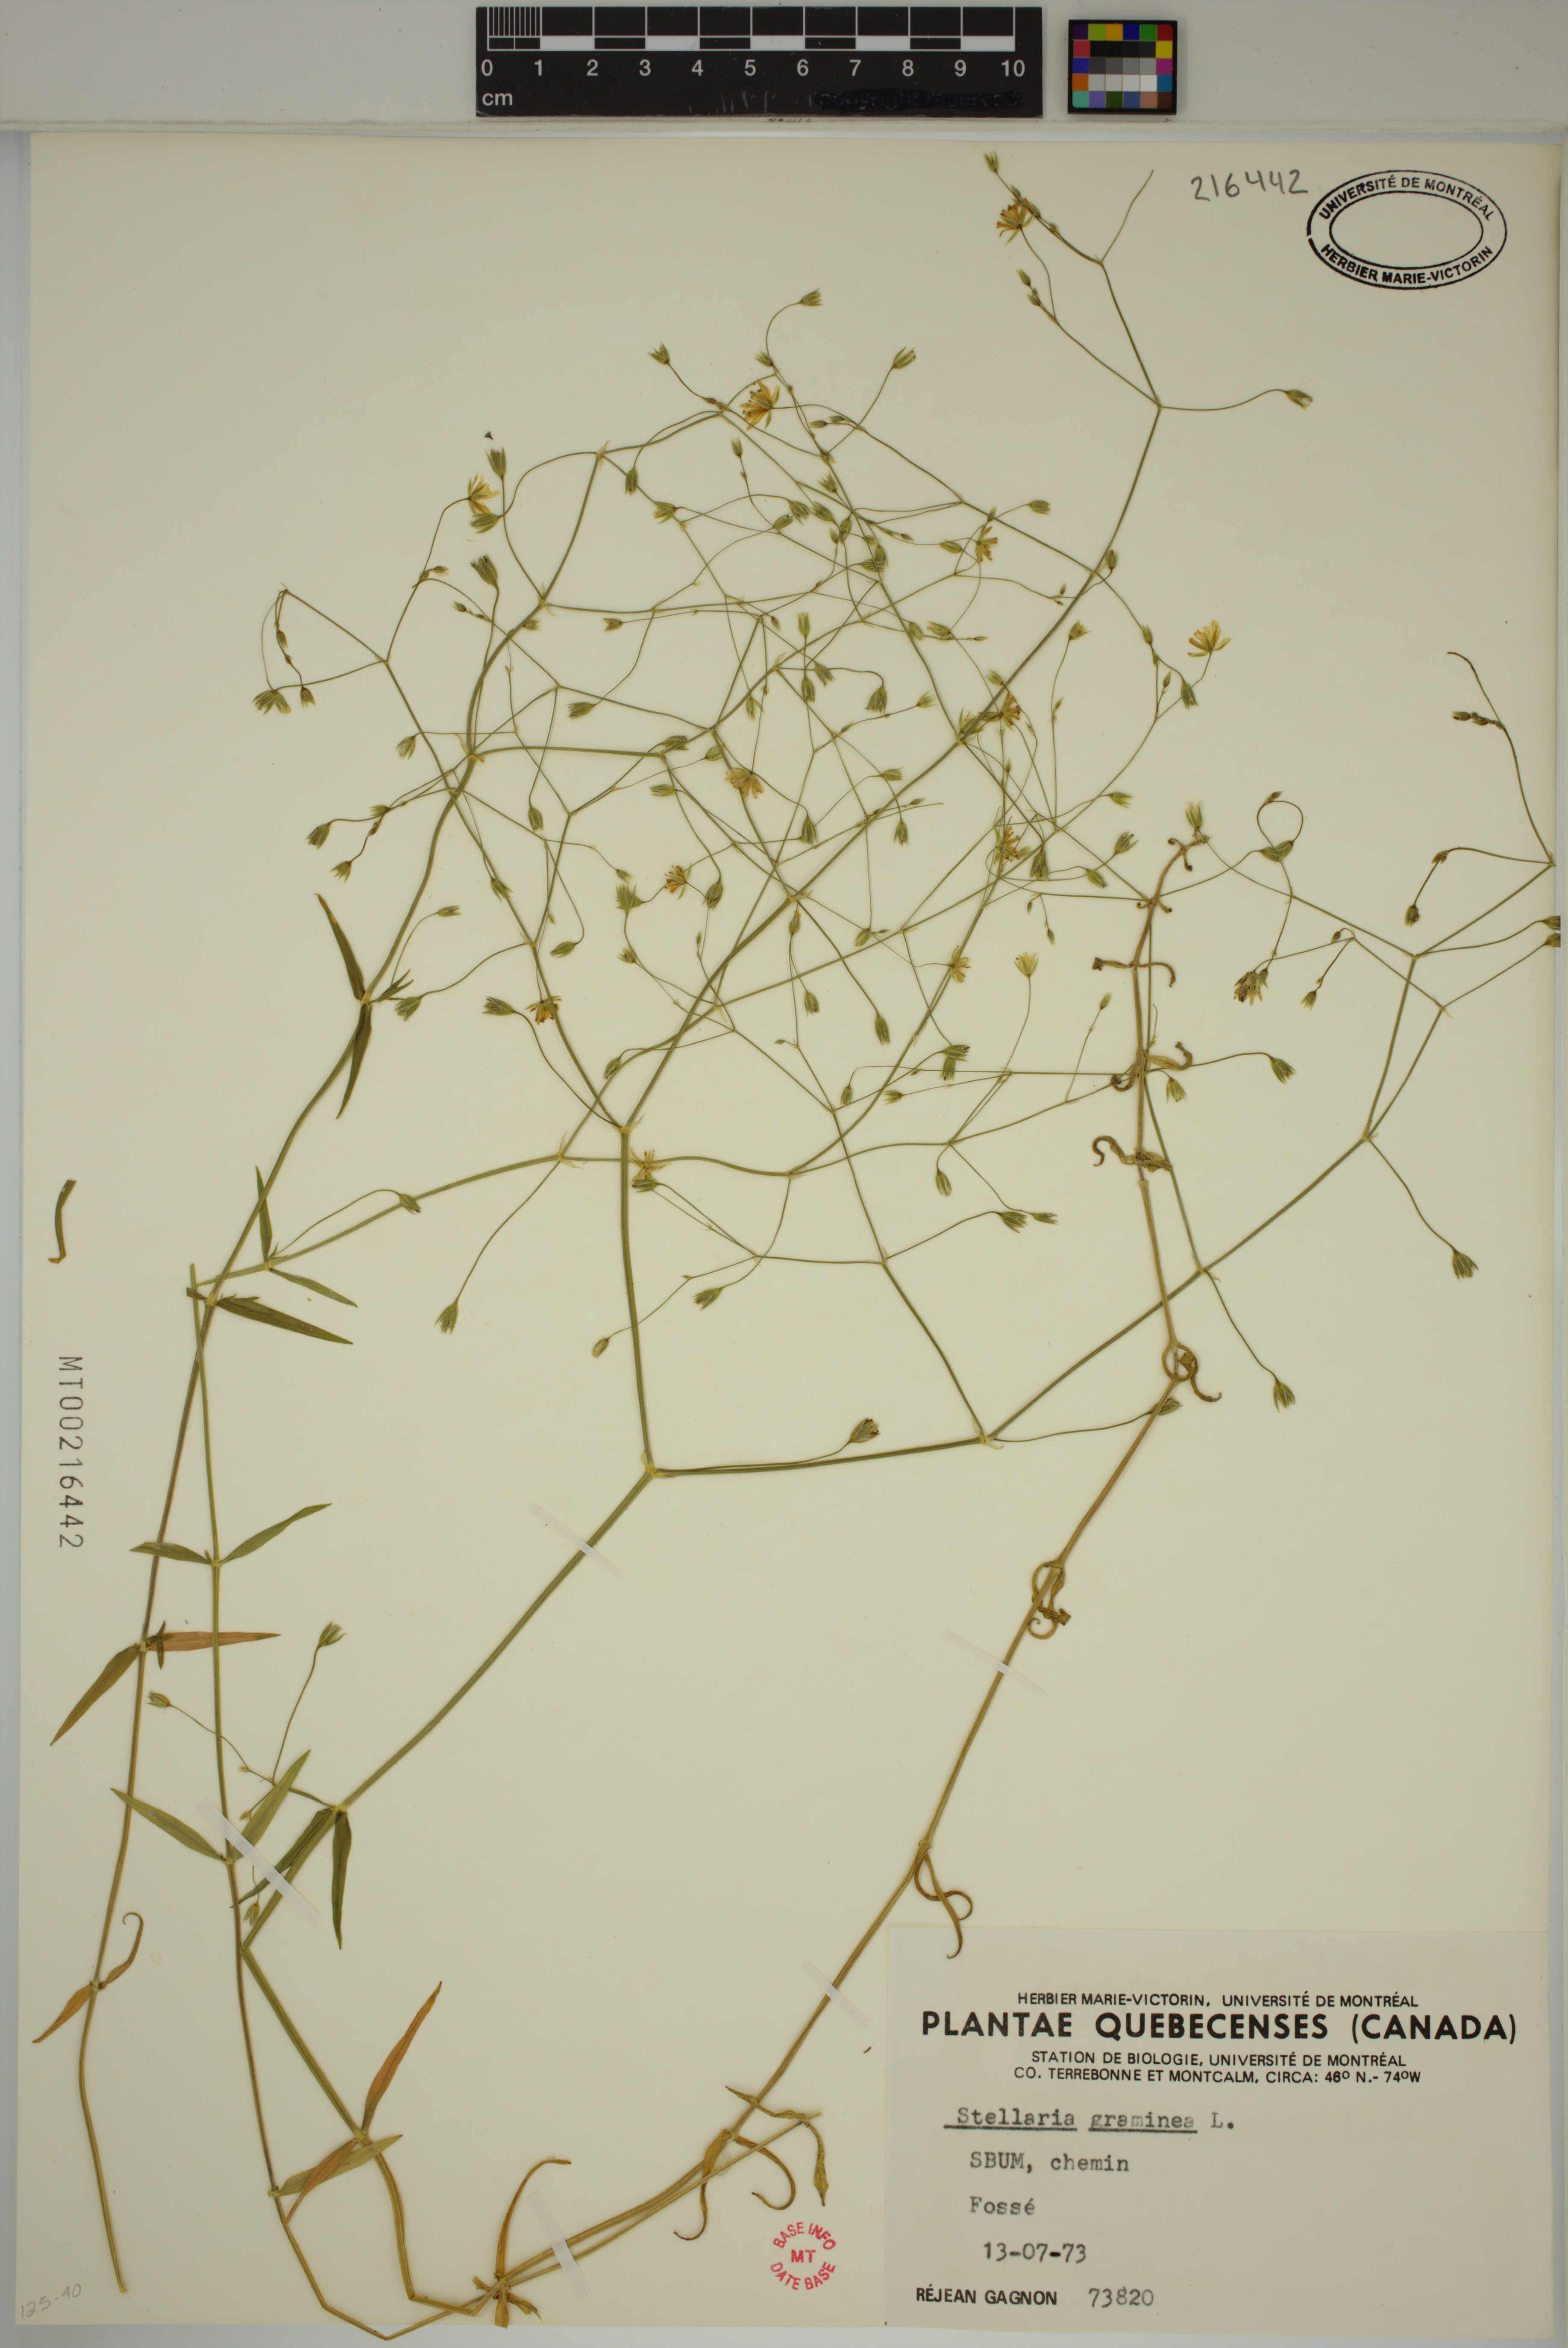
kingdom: Plantae
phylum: Tracheophyta
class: Magnoliopsida
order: Caryophyllales
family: Caryophyllaceae
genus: Stellaria
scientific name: Stellaria graminea
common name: Grass-like starwort
